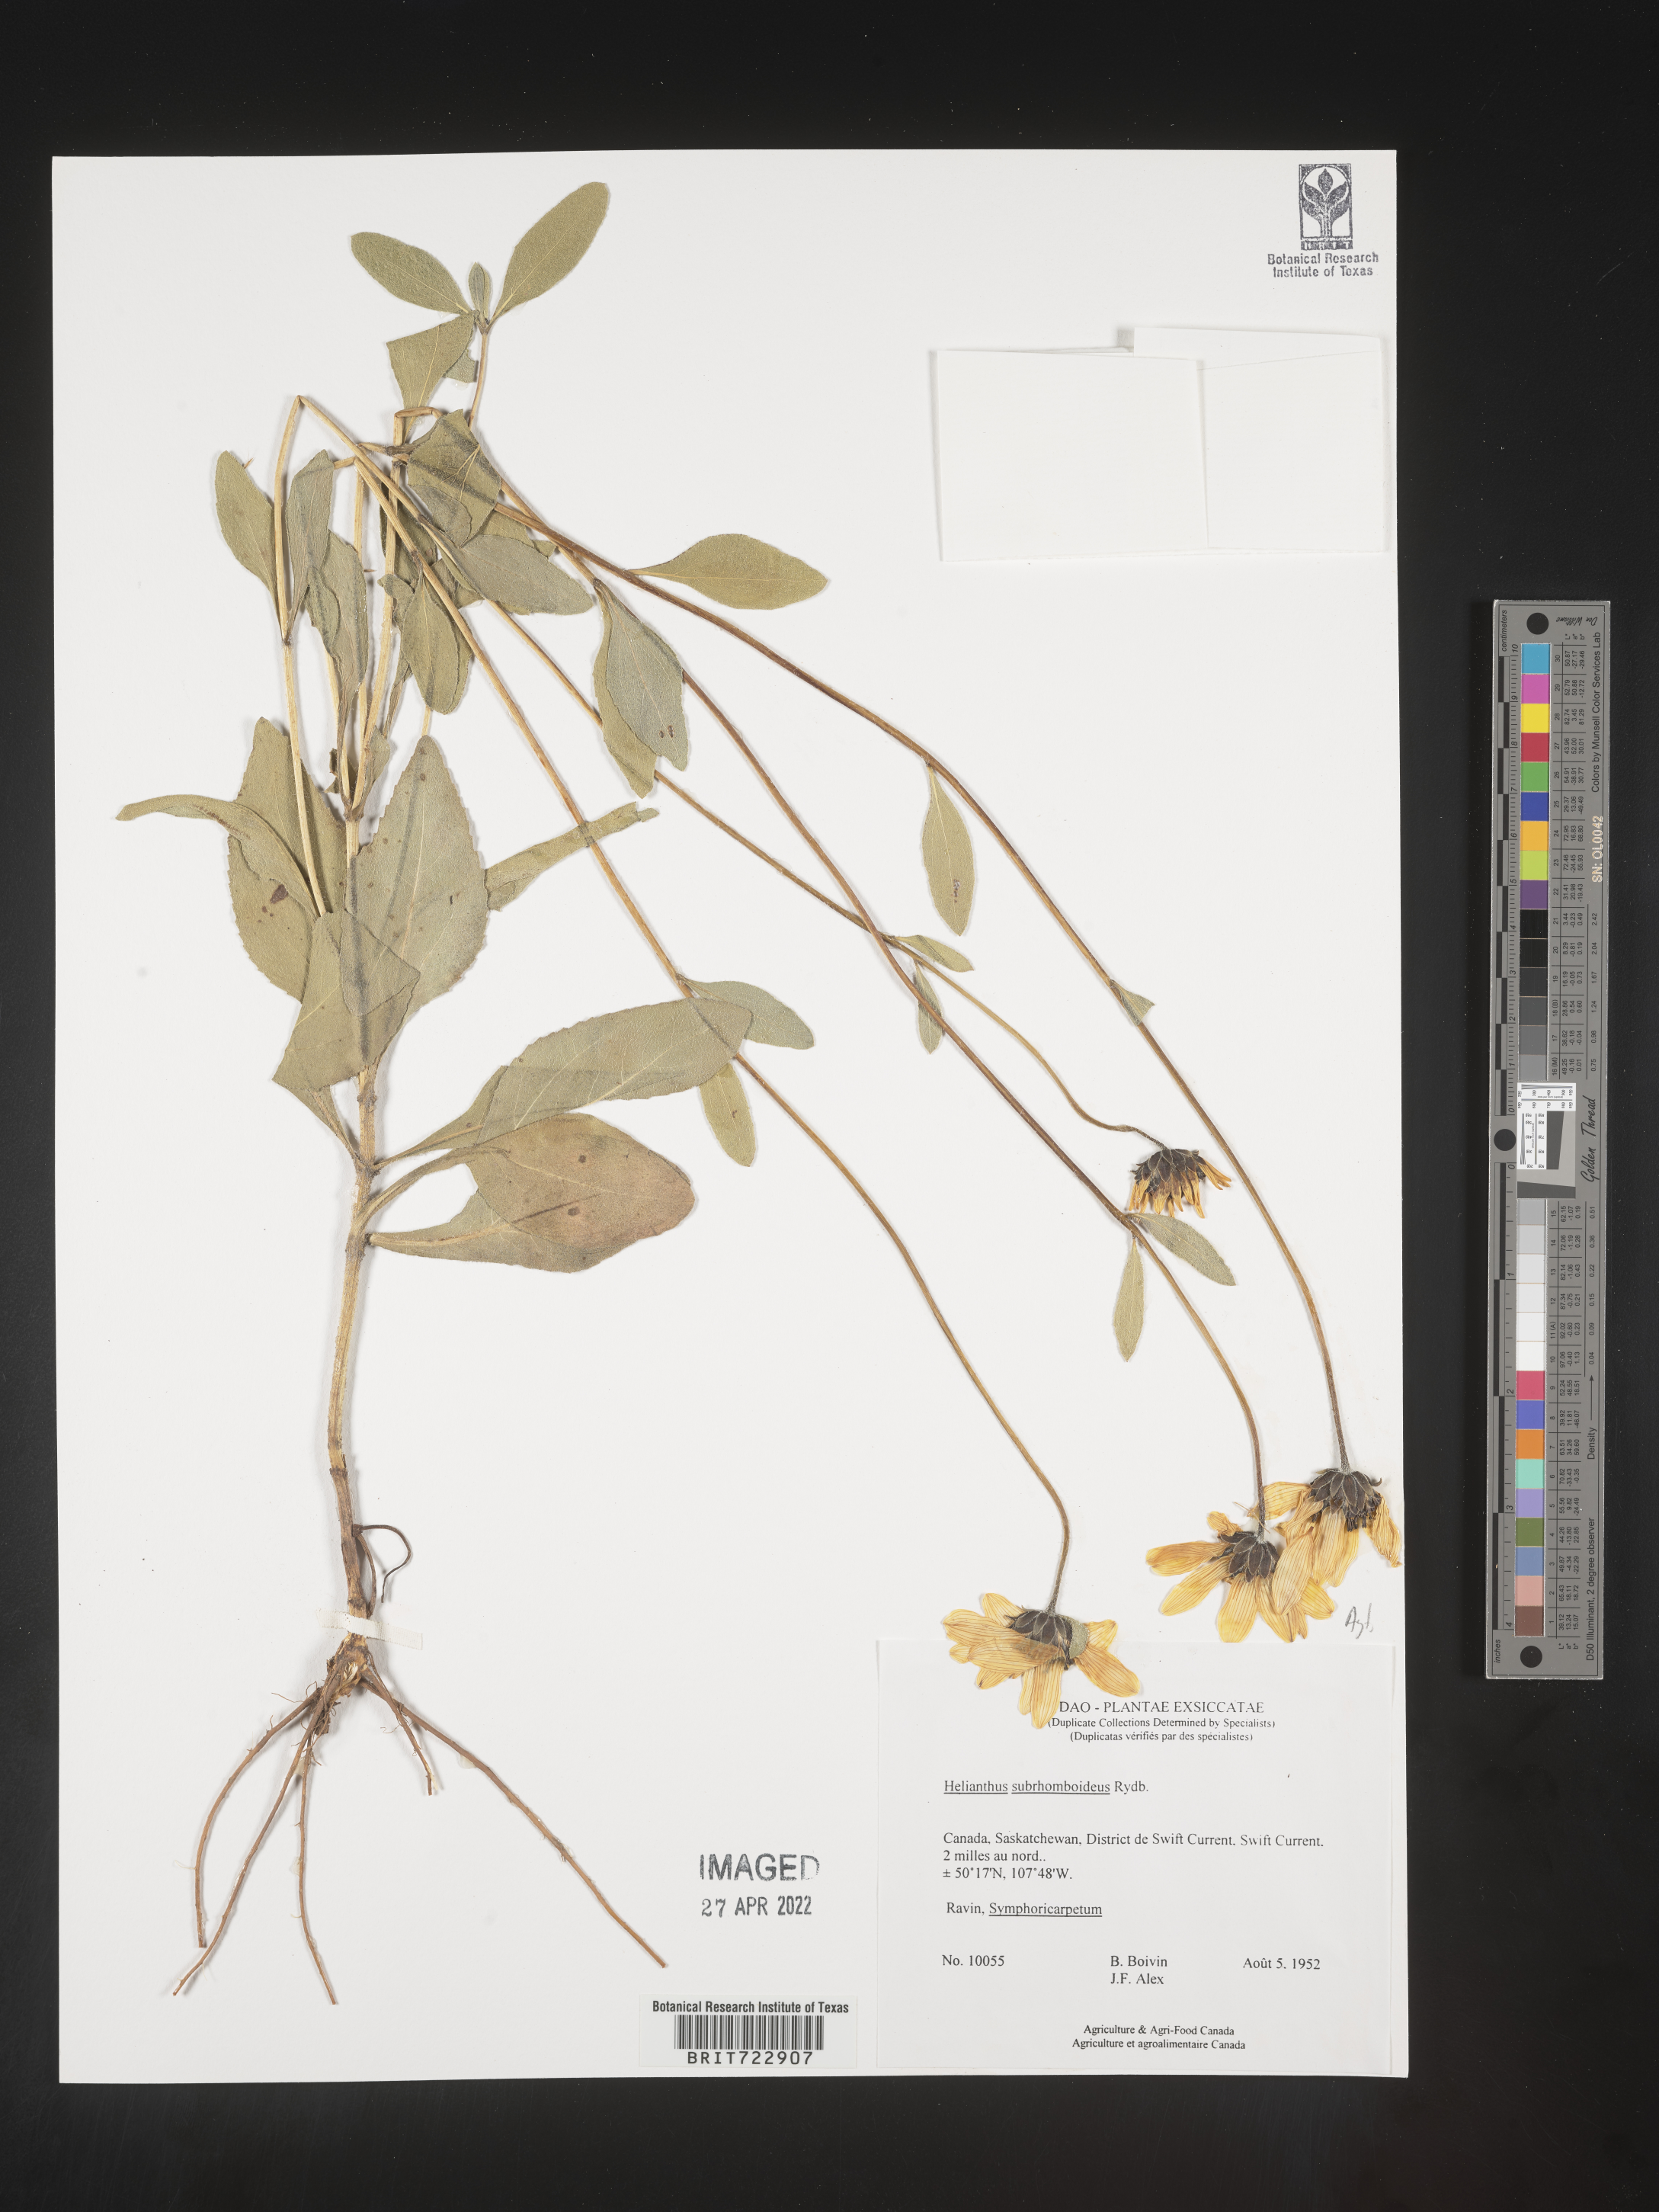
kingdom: Plantae
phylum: Tracheophyta
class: Magnoliopsida
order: Asterales
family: Asteraceae
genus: Helianthus
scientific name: Helianthus
